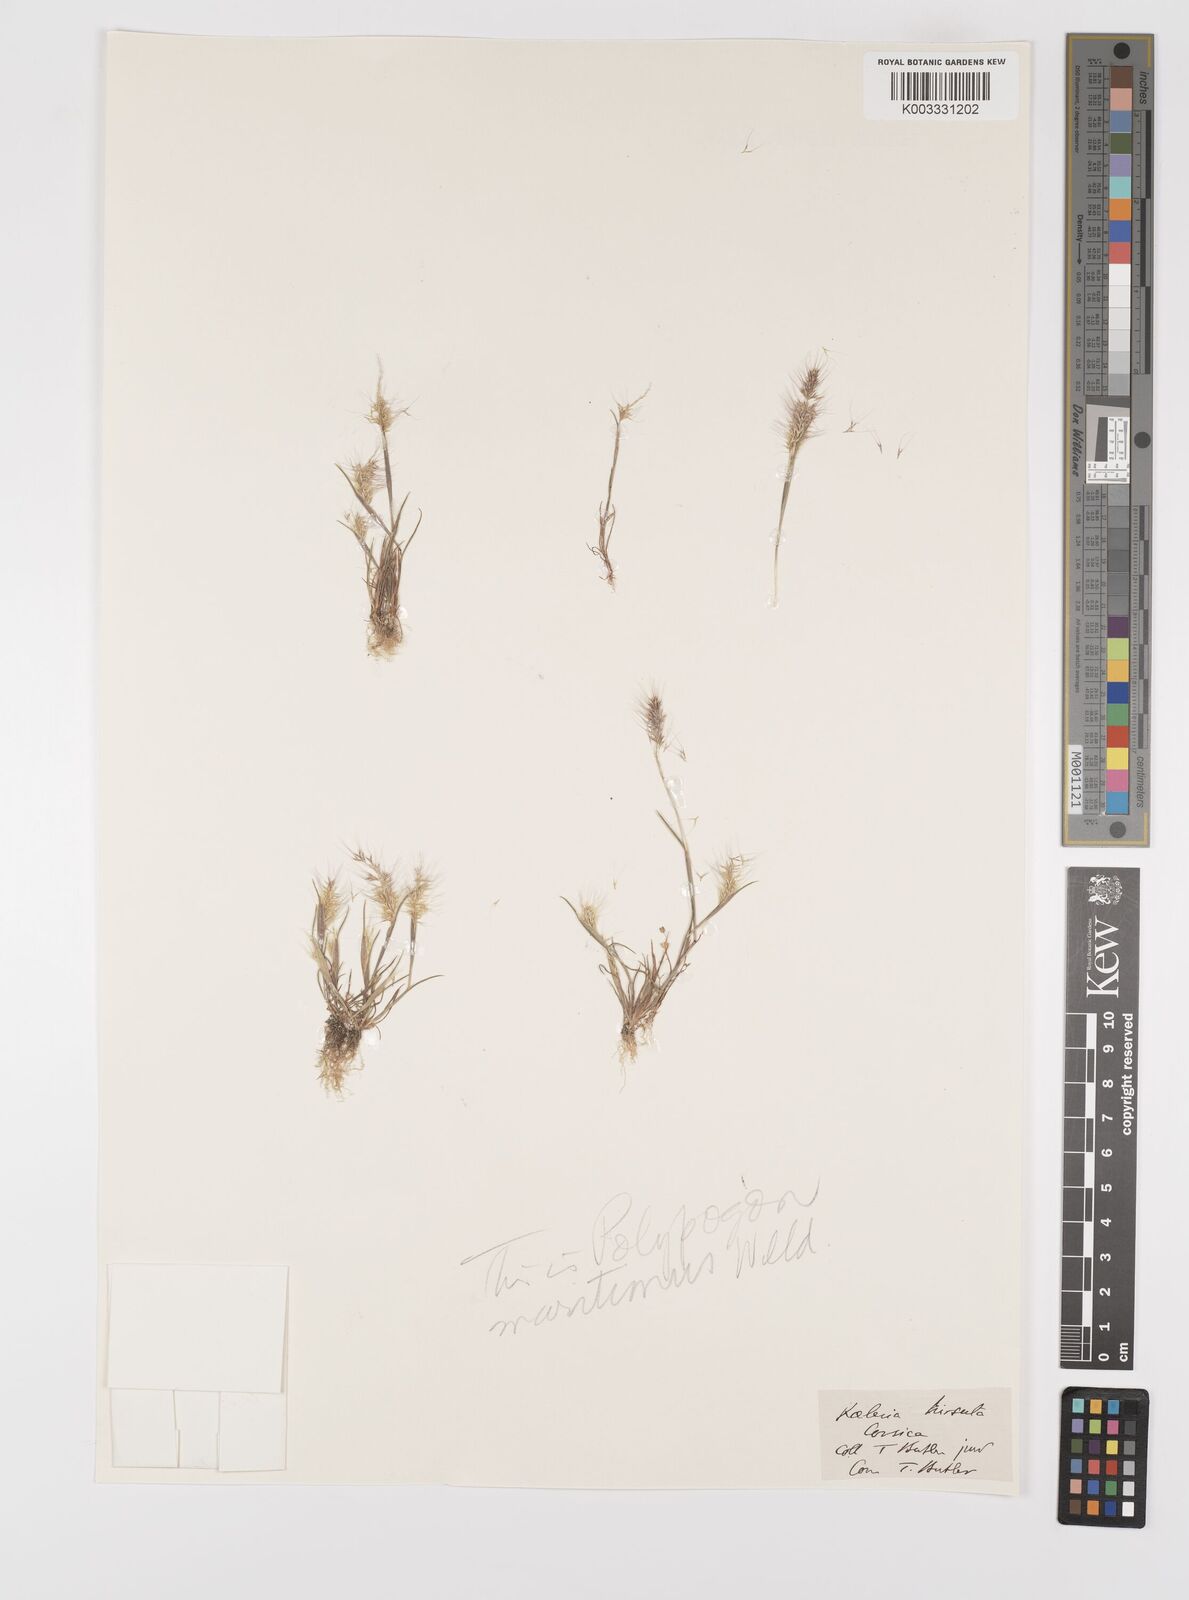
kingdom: Plantae
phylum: Tracheophyta
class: Liliopsida
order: Poales
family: Poaceae
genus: Polypogon
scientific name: Polypogon maritimus
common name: Mediterranean rabbitsfoot grass
